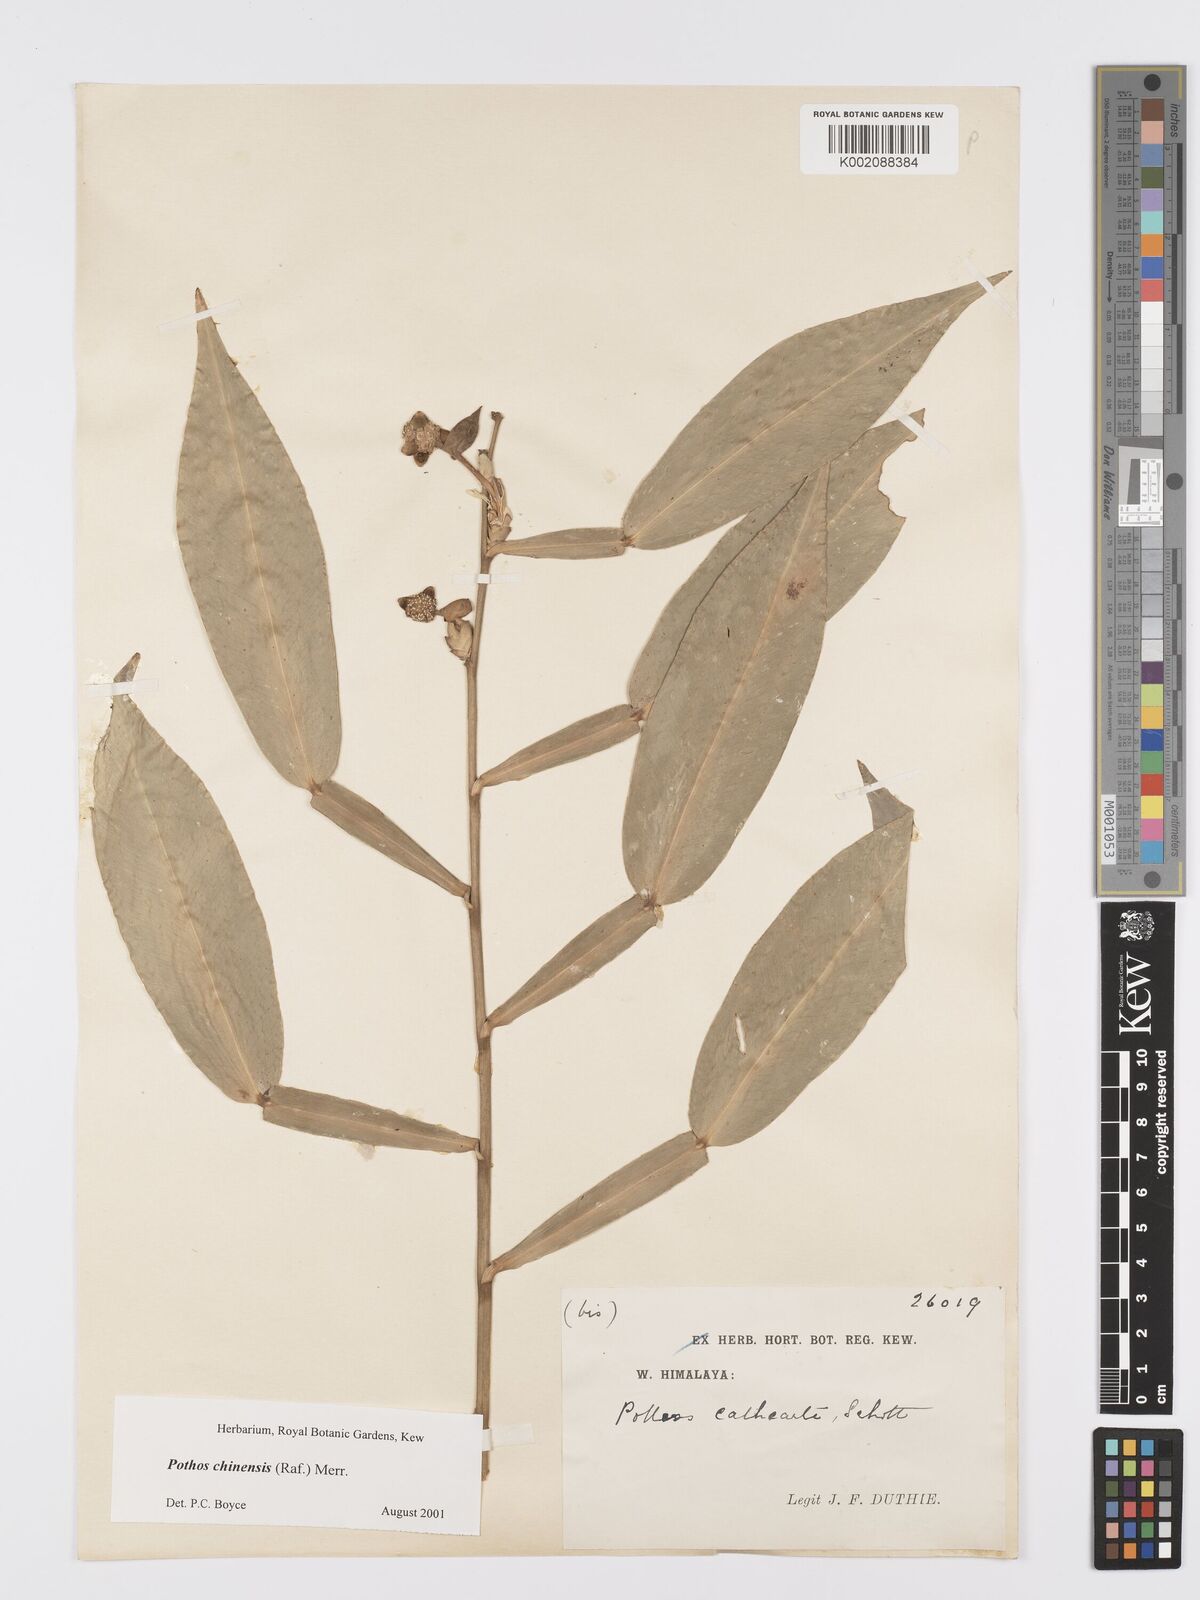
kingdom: Plantae
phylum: Tracheophyta
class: Liliopsida
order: Alismatales
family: Araceae
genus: Pothos
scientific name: Pothos chinensis
